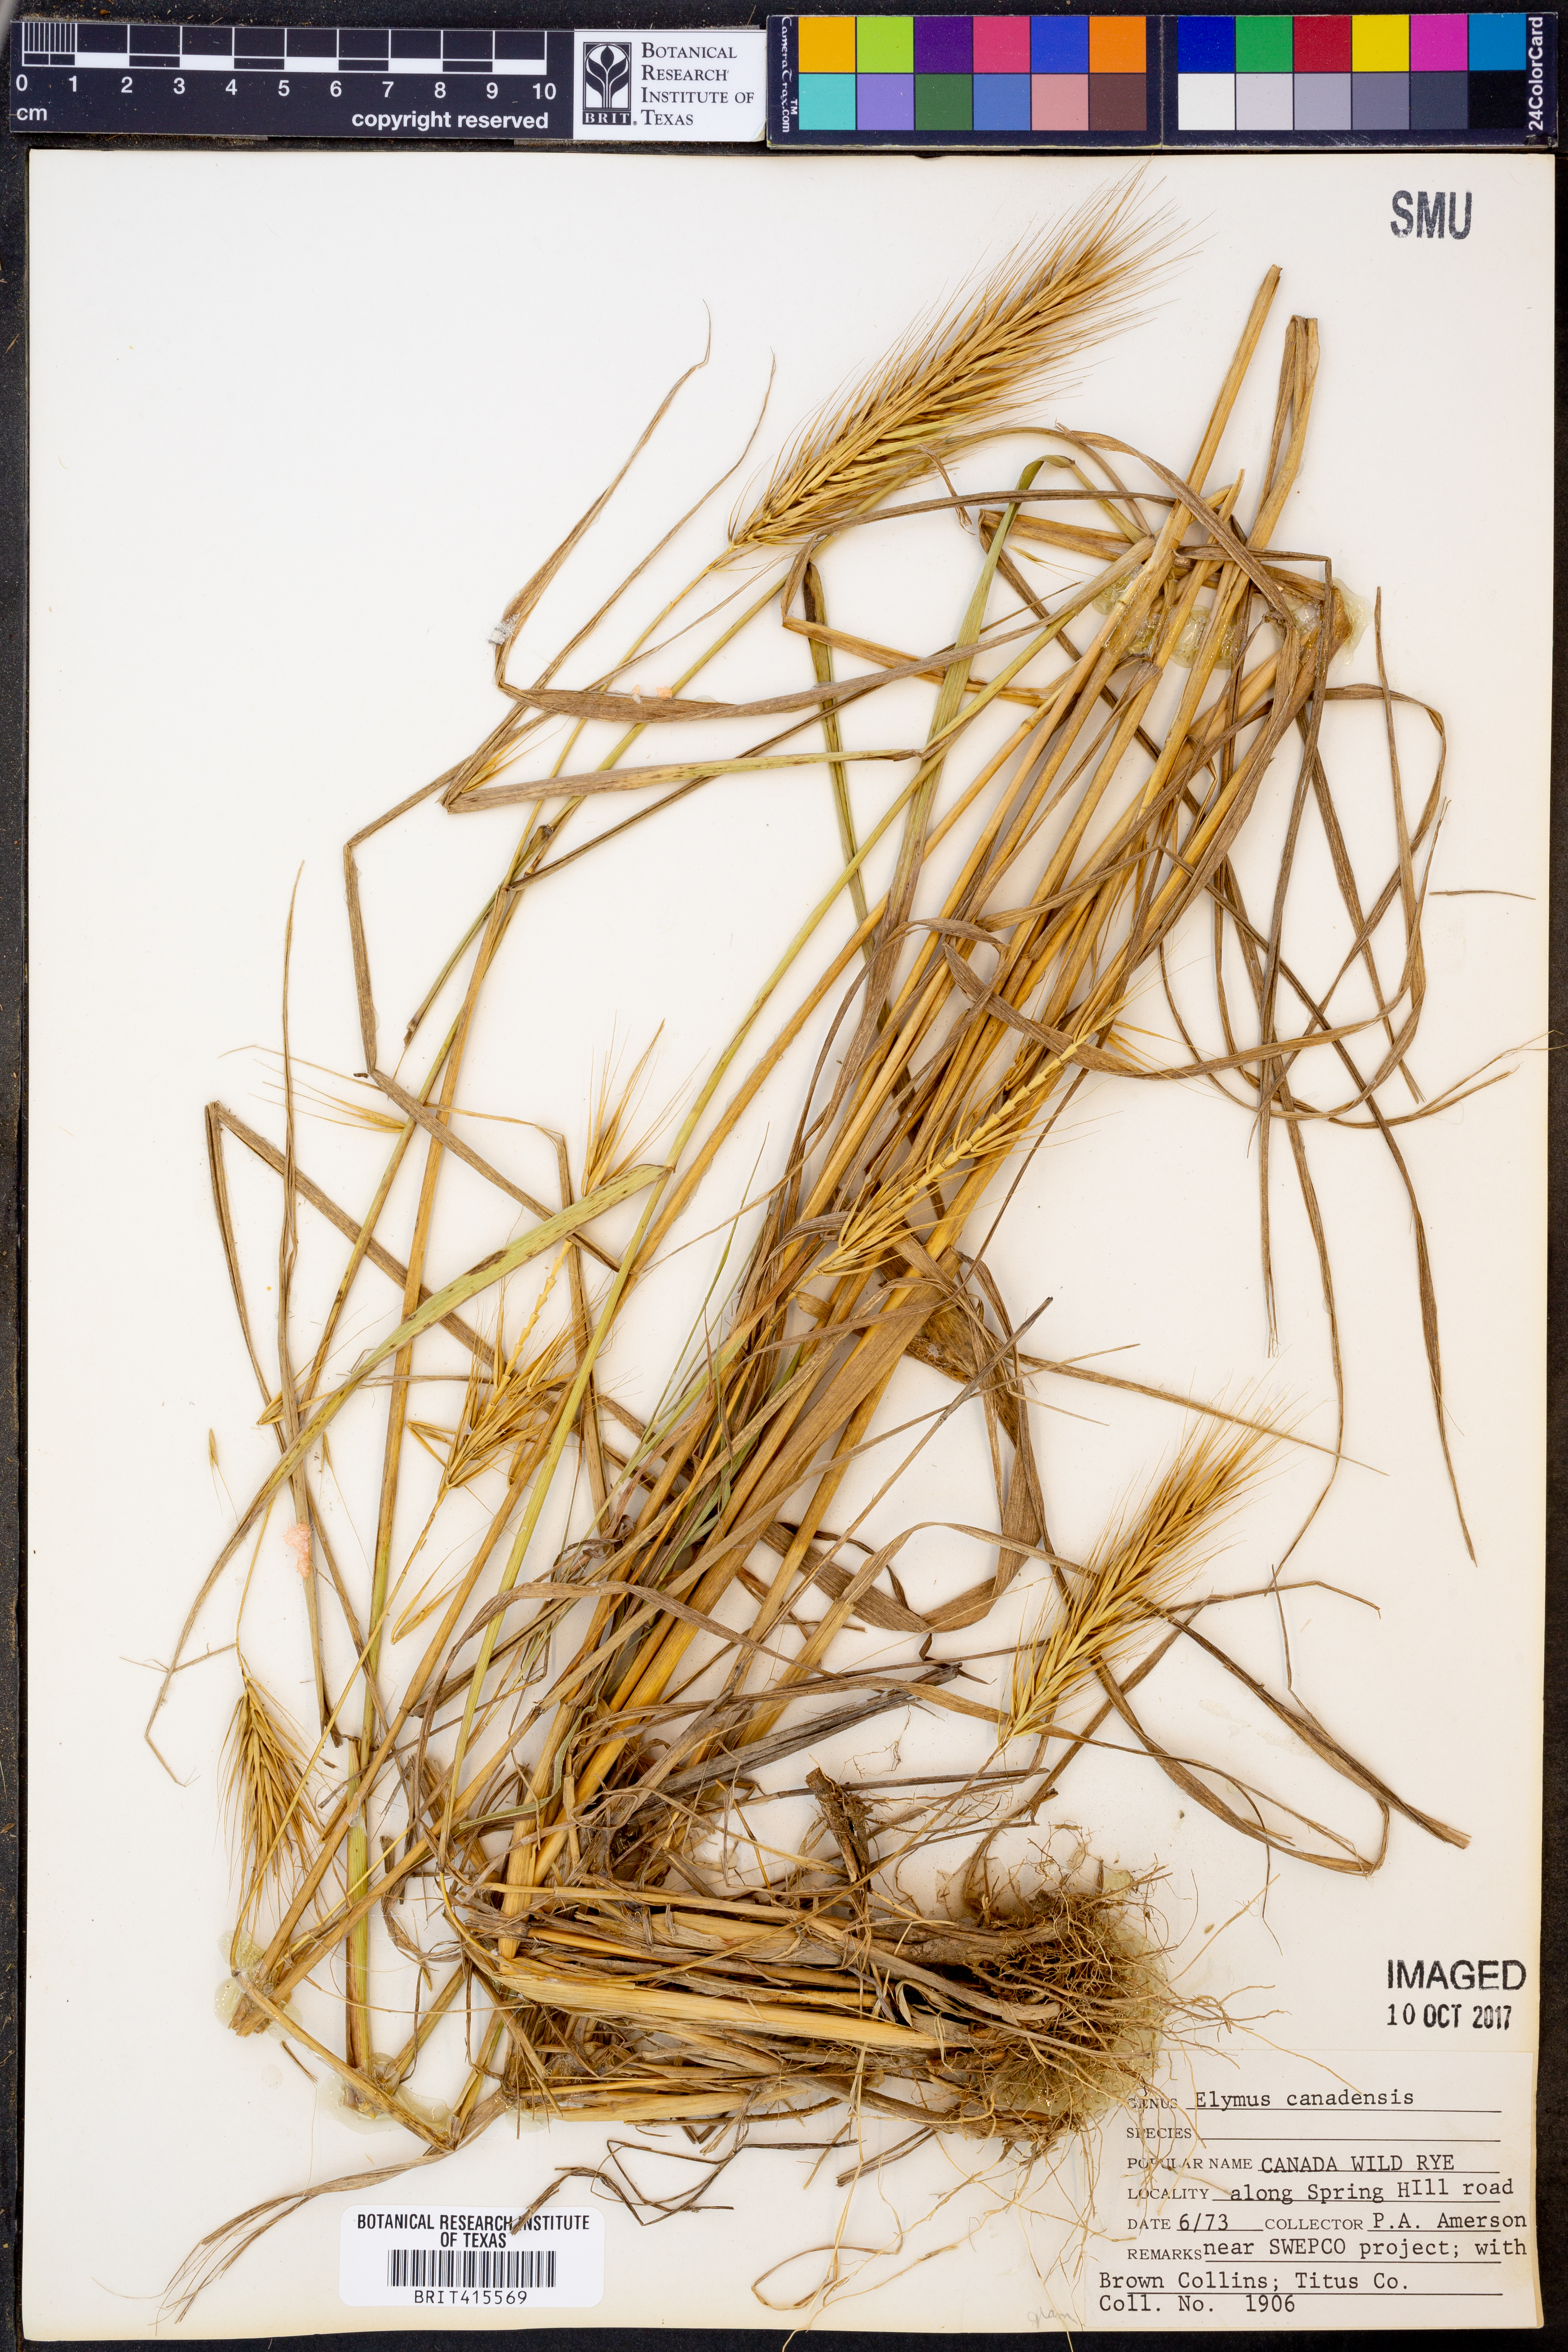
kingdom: Plantae
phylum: Tracheophyta
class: Liliopsida
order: Poales
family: Poaceae
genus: Elymus
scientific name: Elymus canadensis
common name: Canada wild rye
